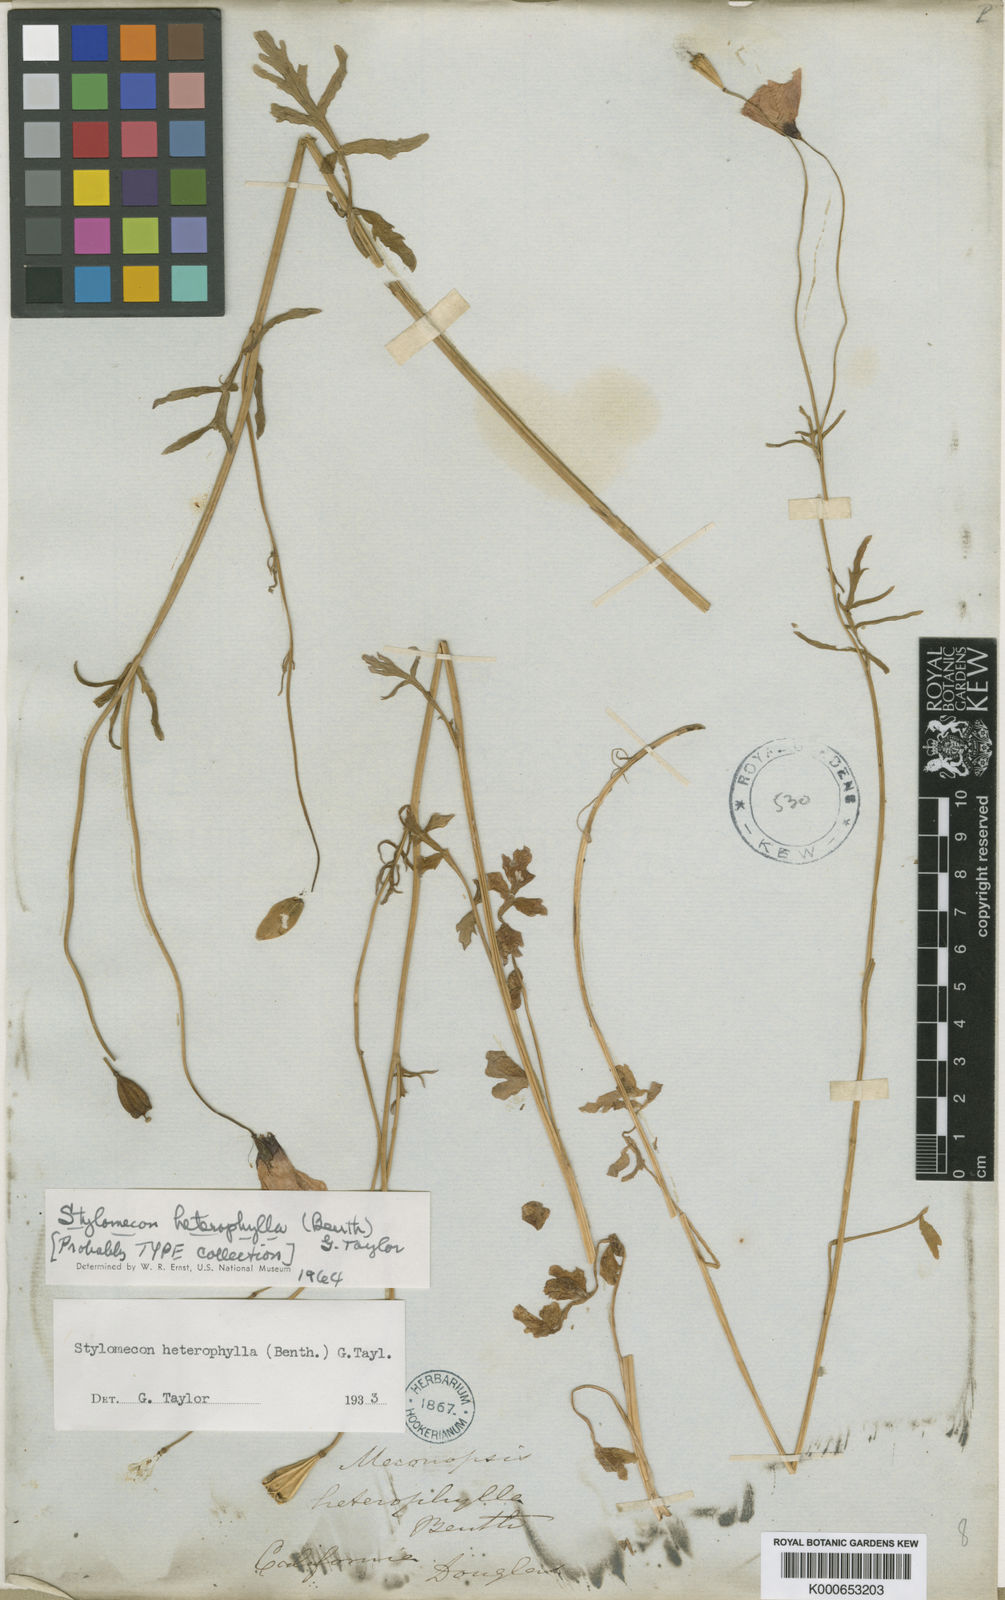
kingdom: Plantae
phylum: Tracheophyta
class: Magnoliopsida
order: Ranunculales
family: Papaveraceae
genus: Stylomecon
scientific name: Stylomecon heterophylla
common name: Flaming-poppy
